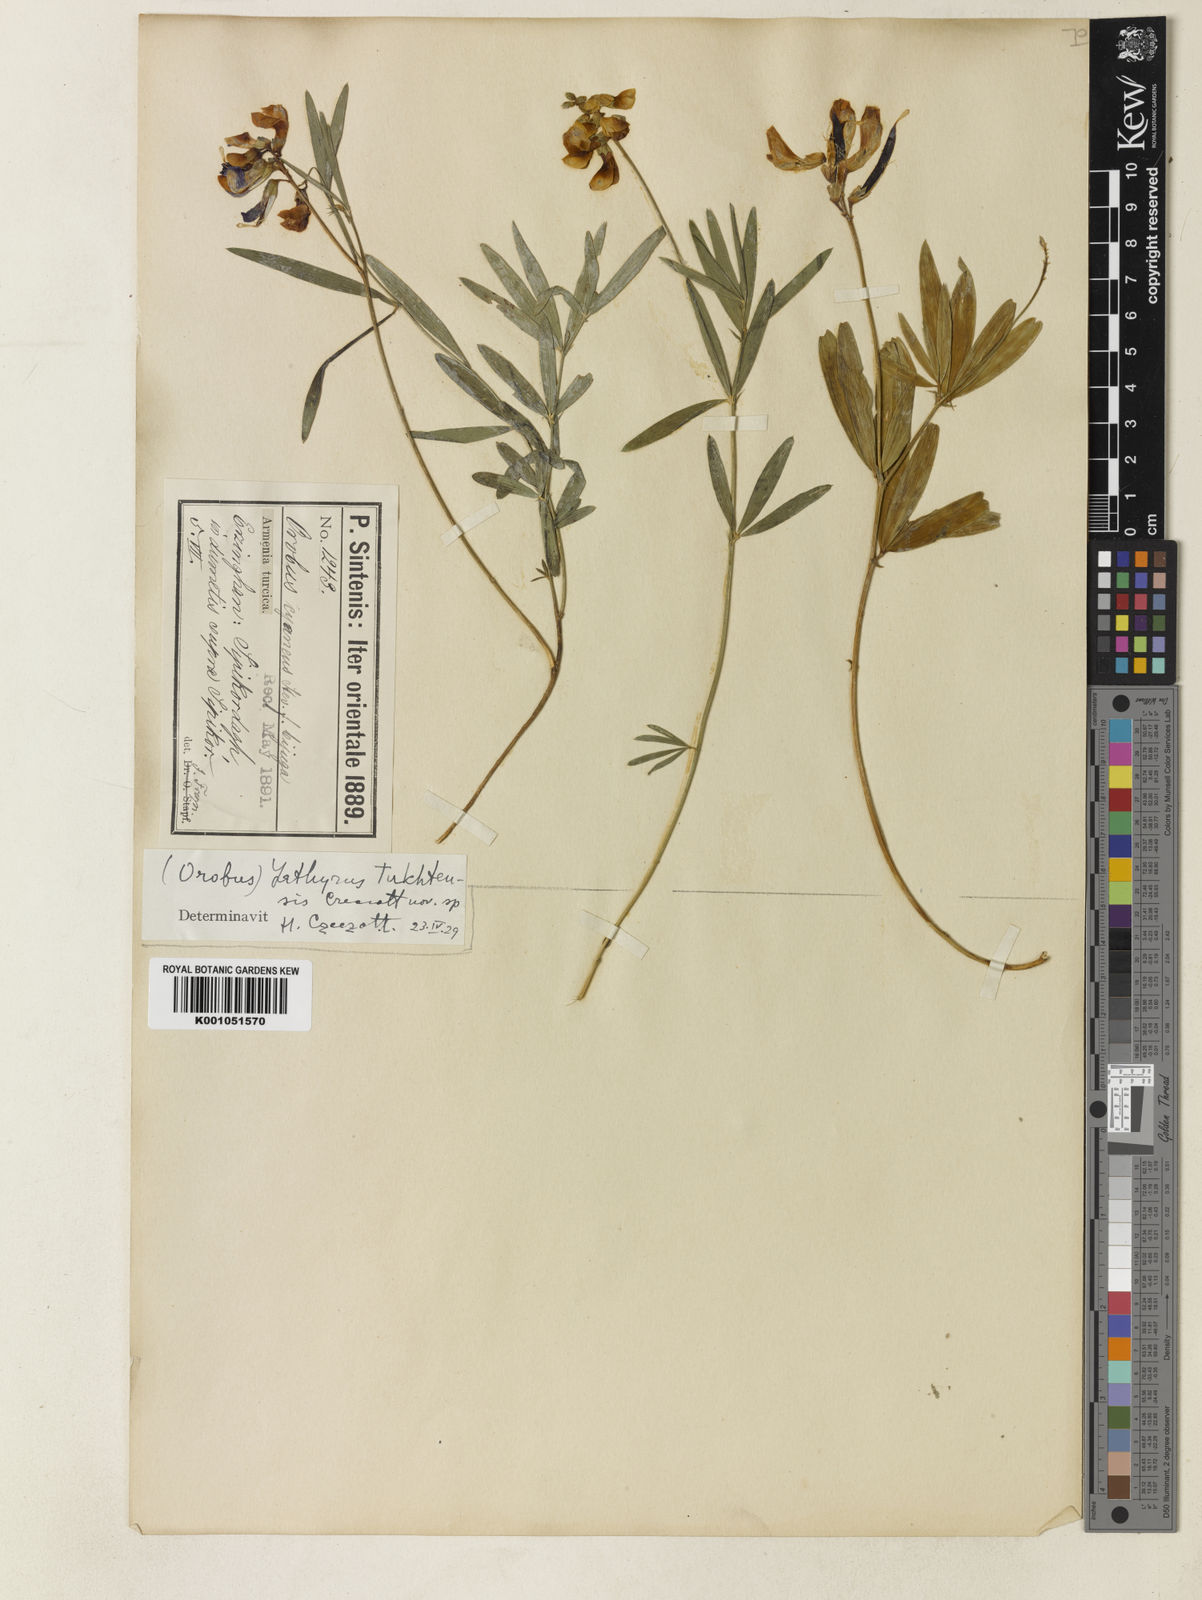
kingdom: Plantae
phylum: Tracheophyta
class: Magnoliopsida
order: Fabales
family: Fabaceae
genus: Lathyrus
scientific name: Lathyrus tukhtensis
